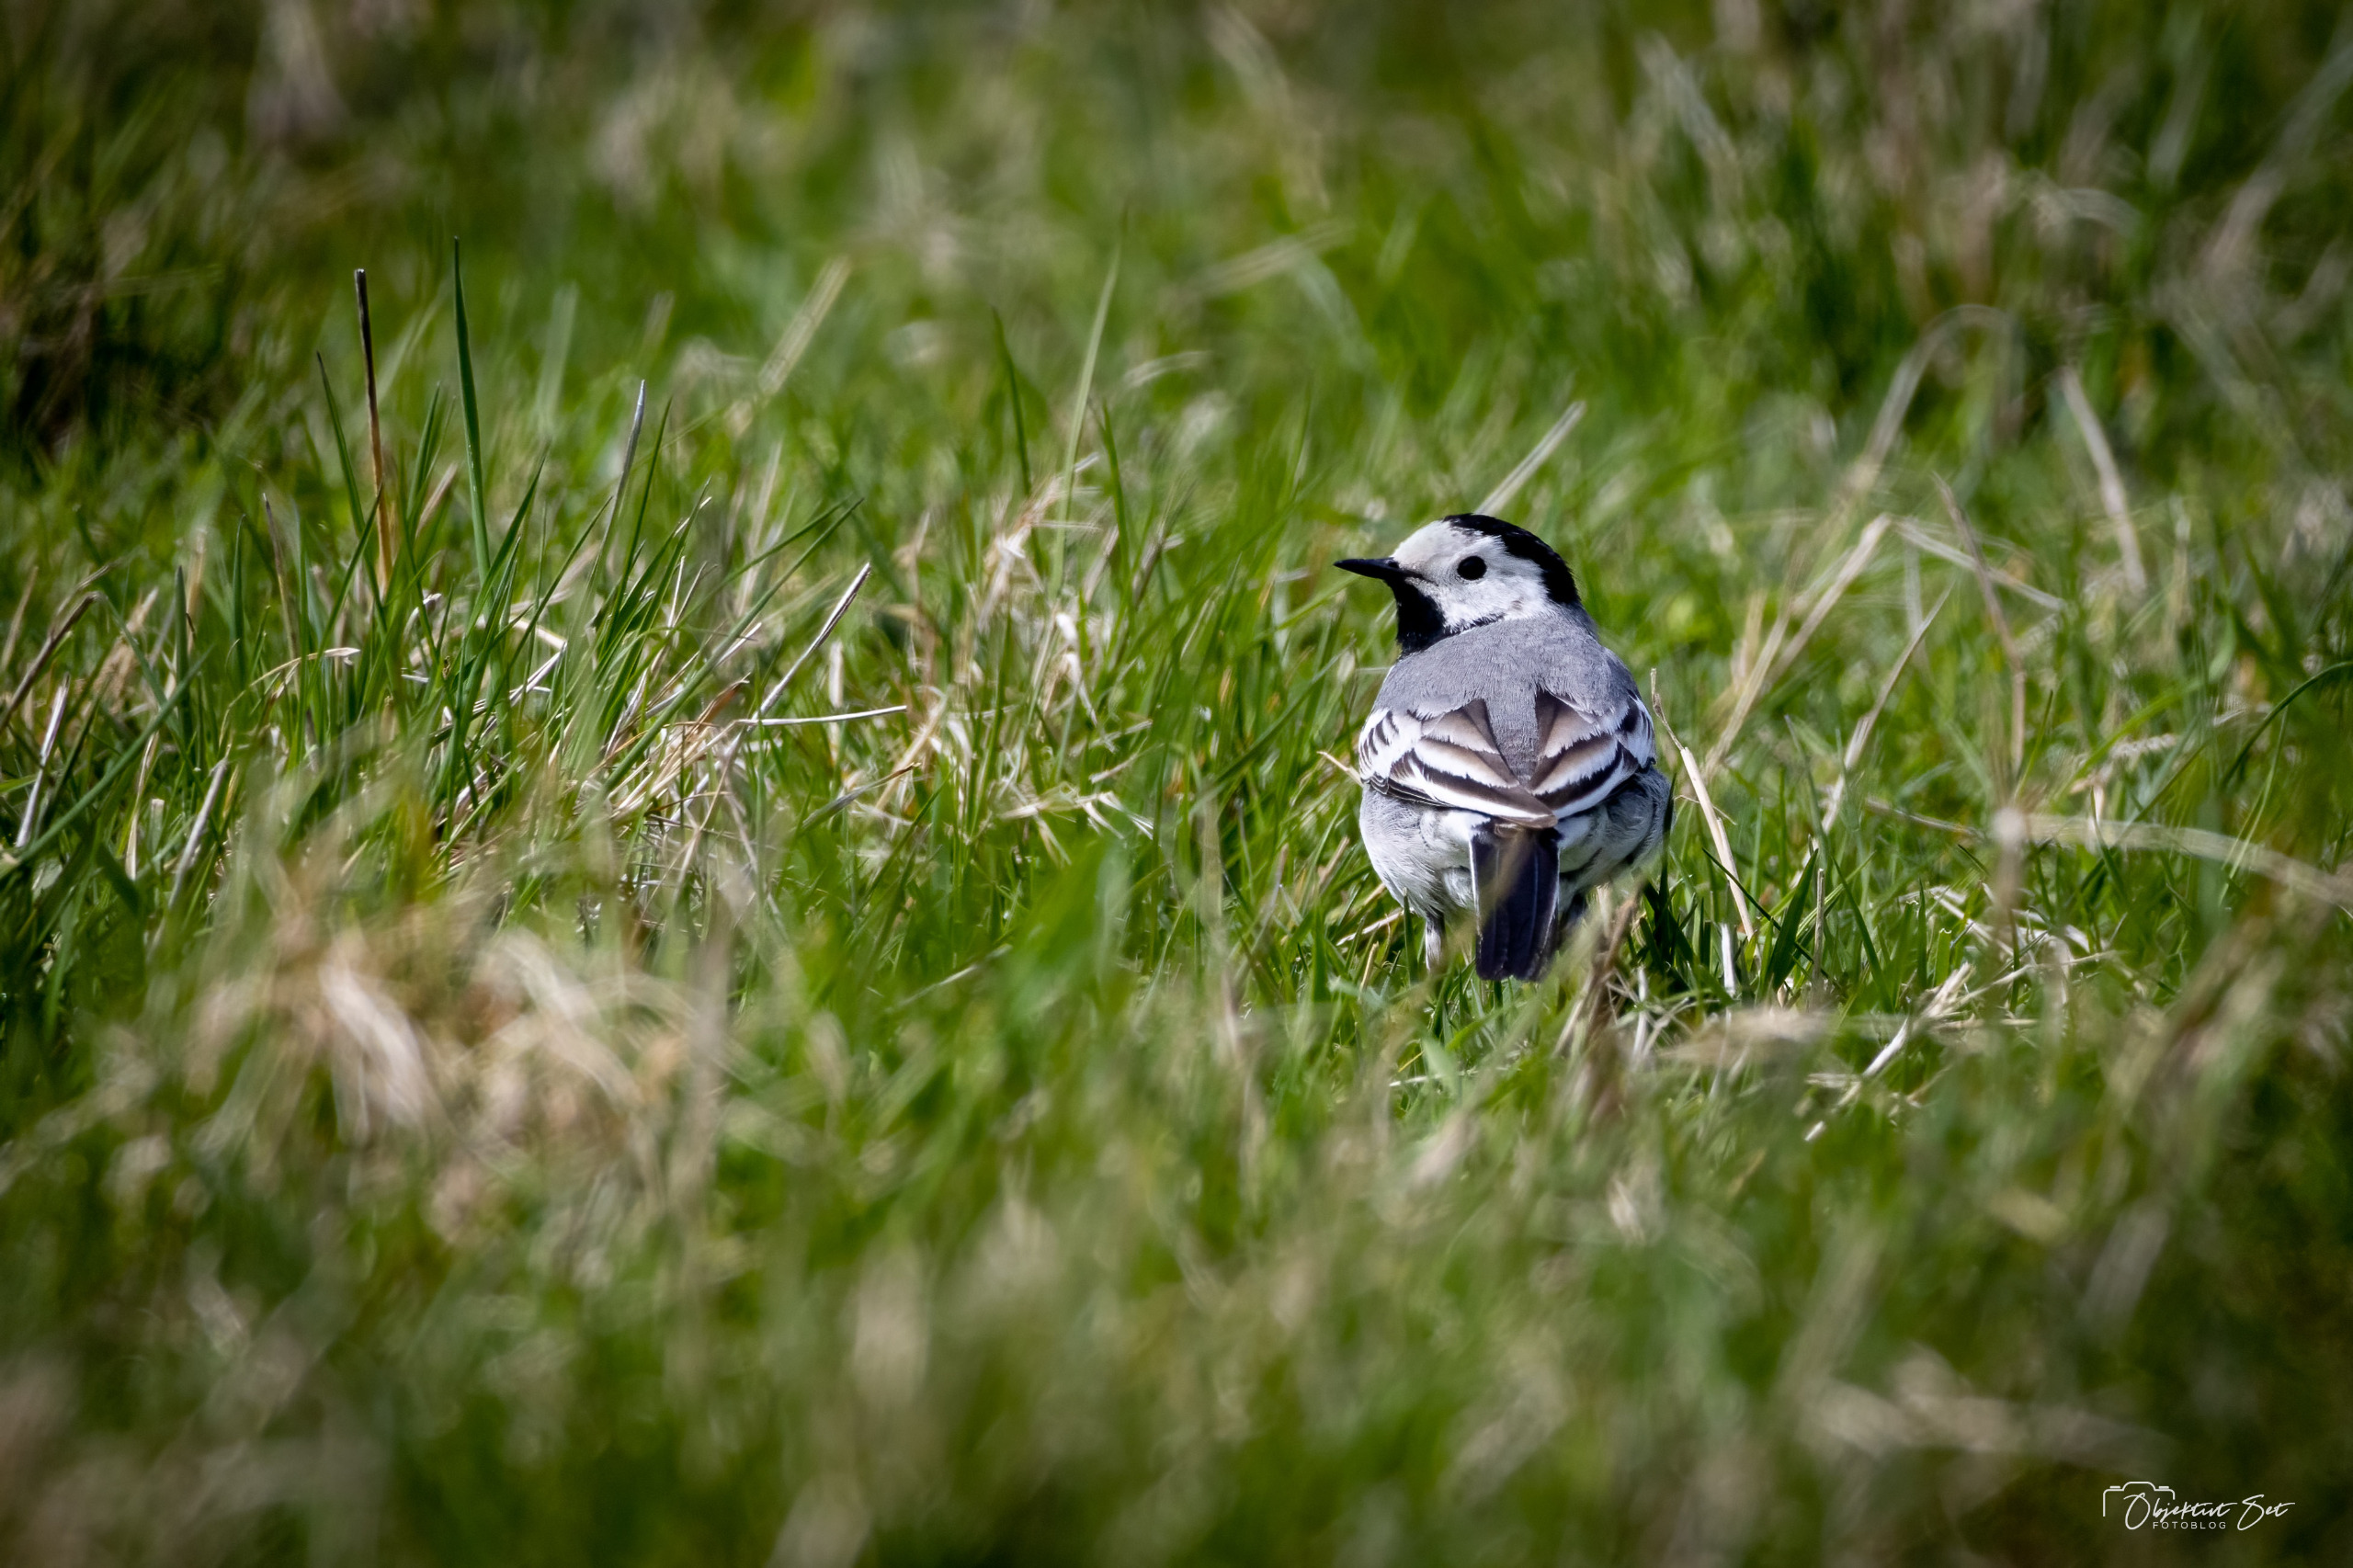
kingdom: Animalia
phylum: Chordata
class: Aves
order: Passeriformes
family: Motacillidae
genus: Motacilla
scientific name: Motacilla alba
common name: Hvid vipstjert
